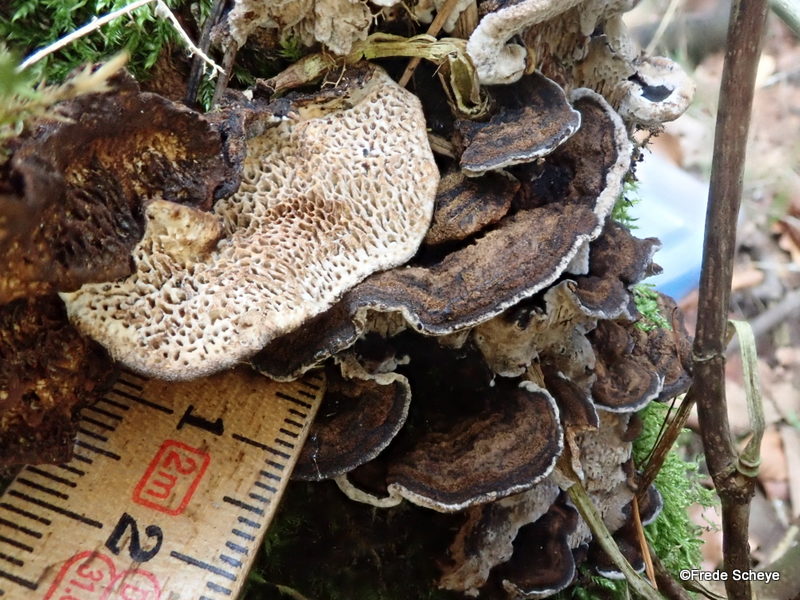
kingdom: Fungi
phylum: Basidiomycota
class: Agaricomycetes
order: Polyporales
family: Polyporaceae
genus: Podofomes
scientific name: Podofomes mollis
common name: blød begporesvamp
